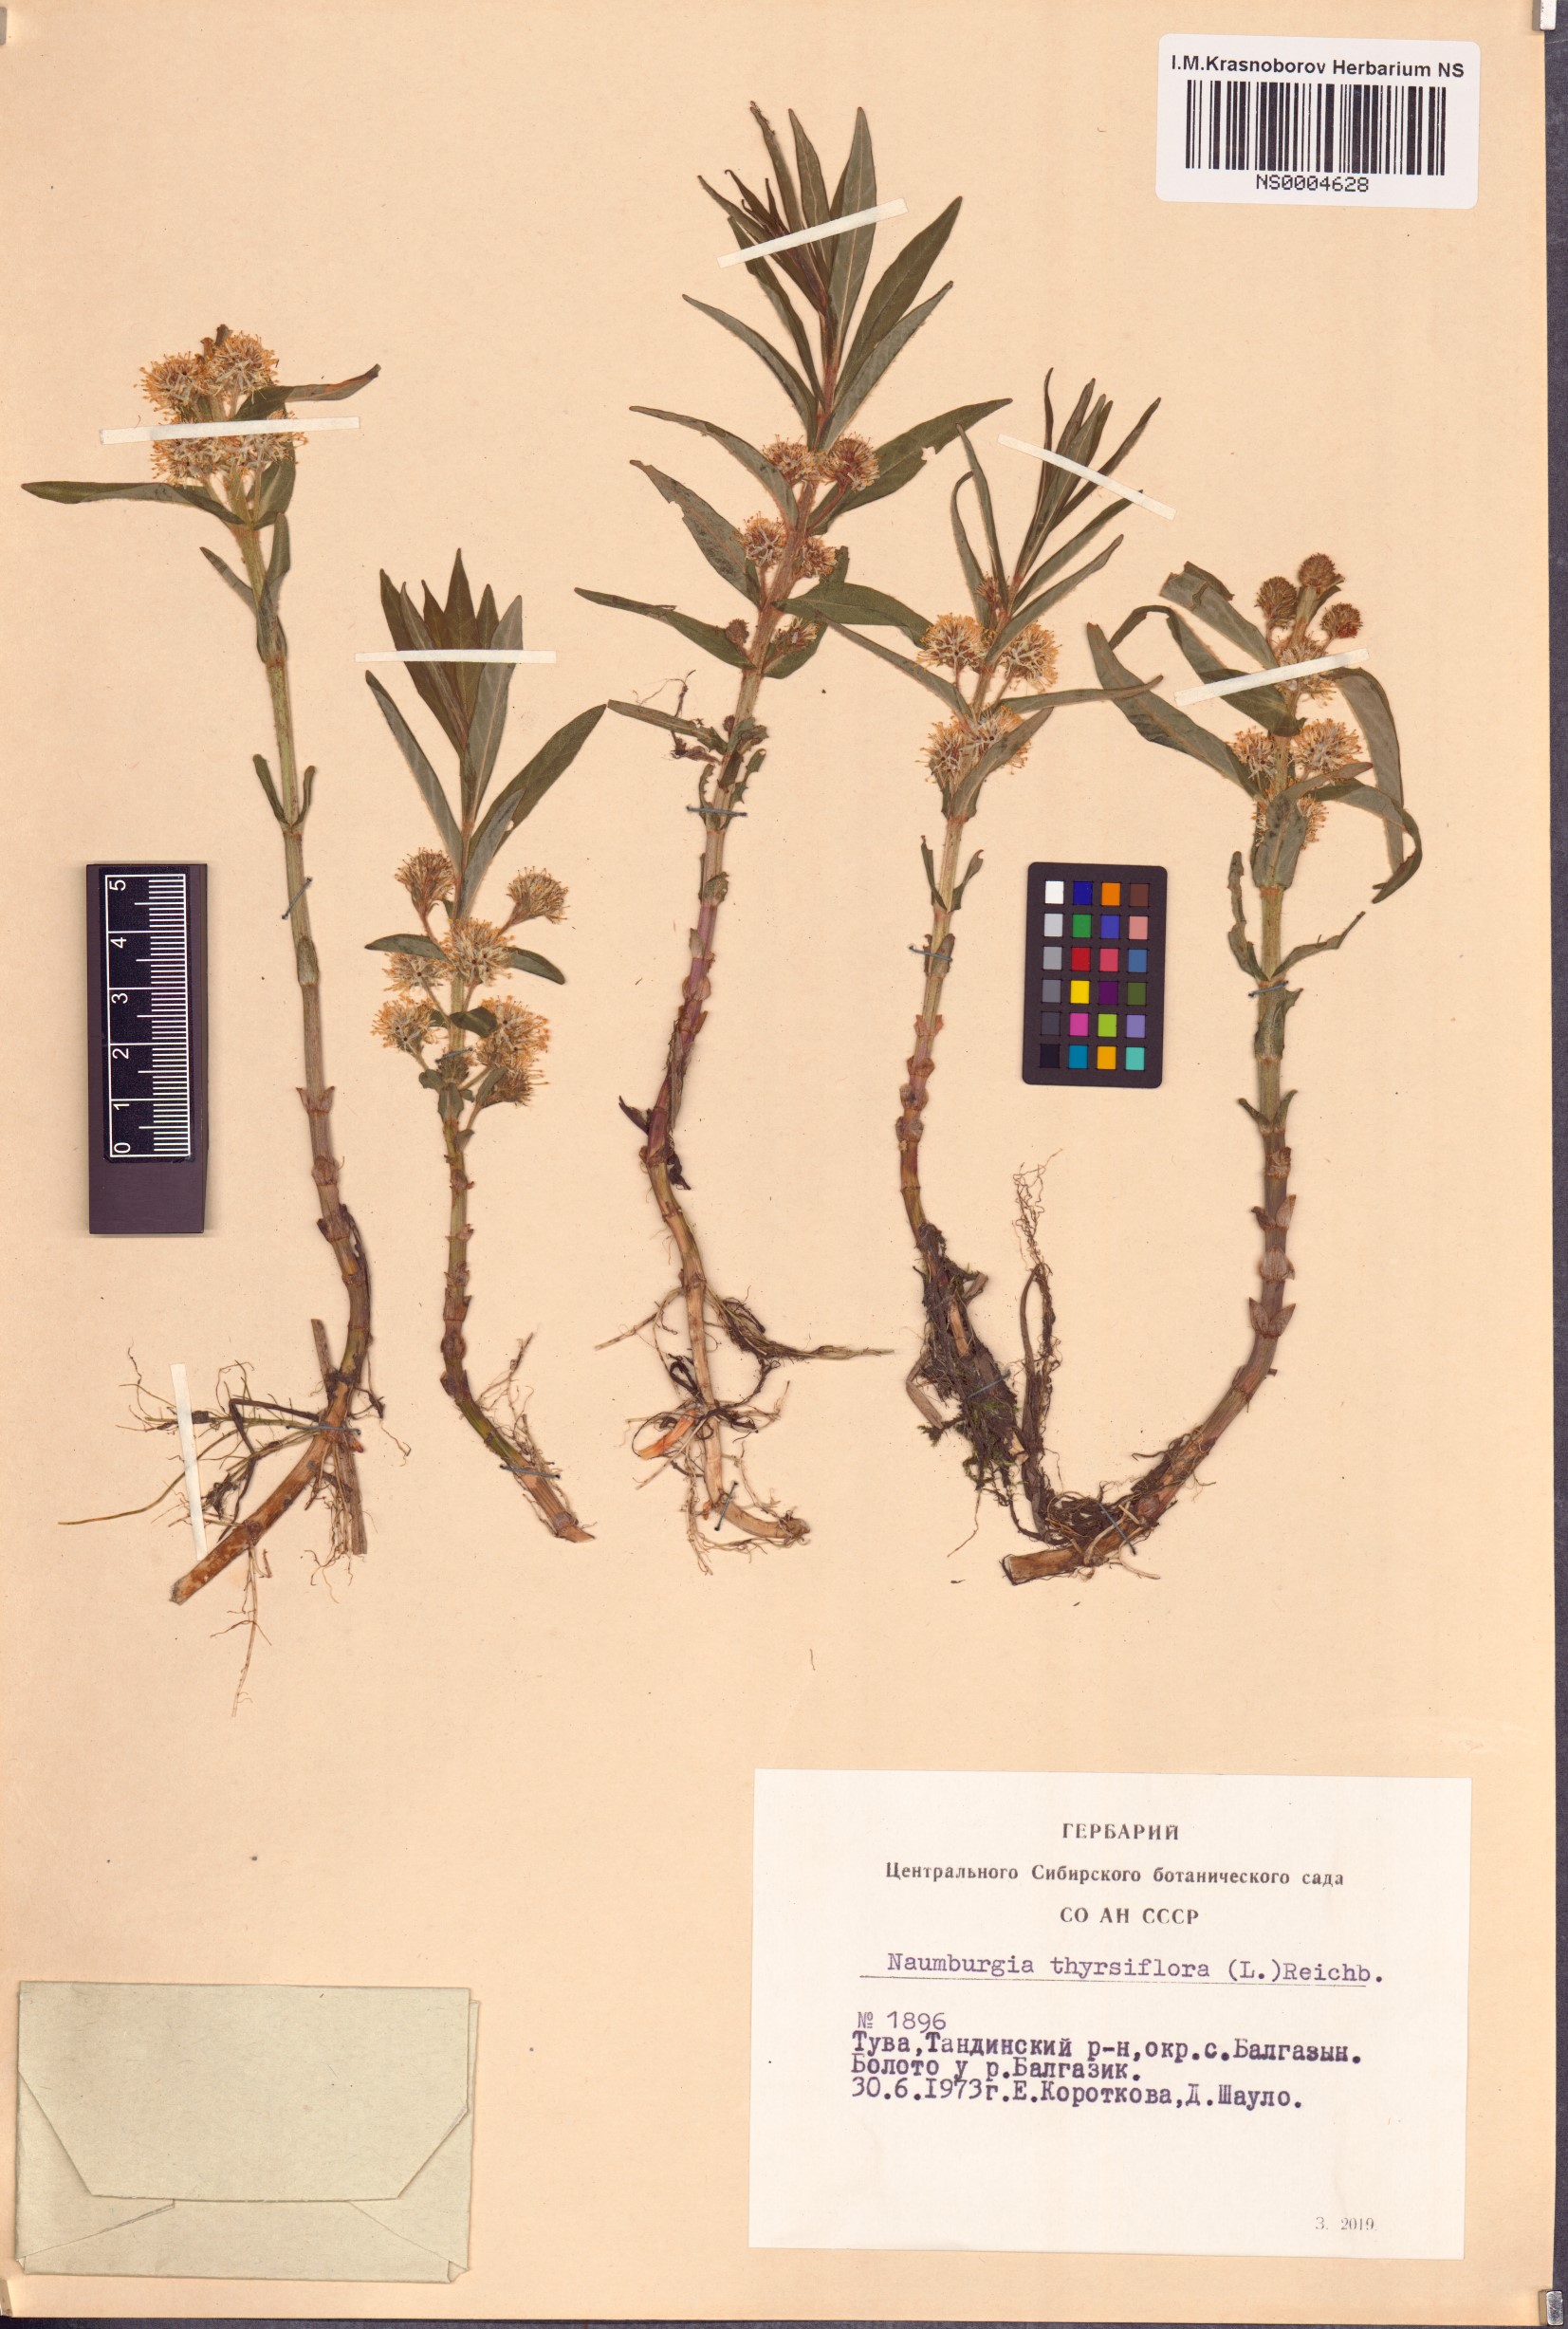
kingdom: Plantae
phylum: Tracheophyta
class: Magnoliopsida
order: Ericales
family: Primulaceae
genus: Lysimachia
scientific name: Lysimachia thyrsiflora
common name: Tufted loosestrife
